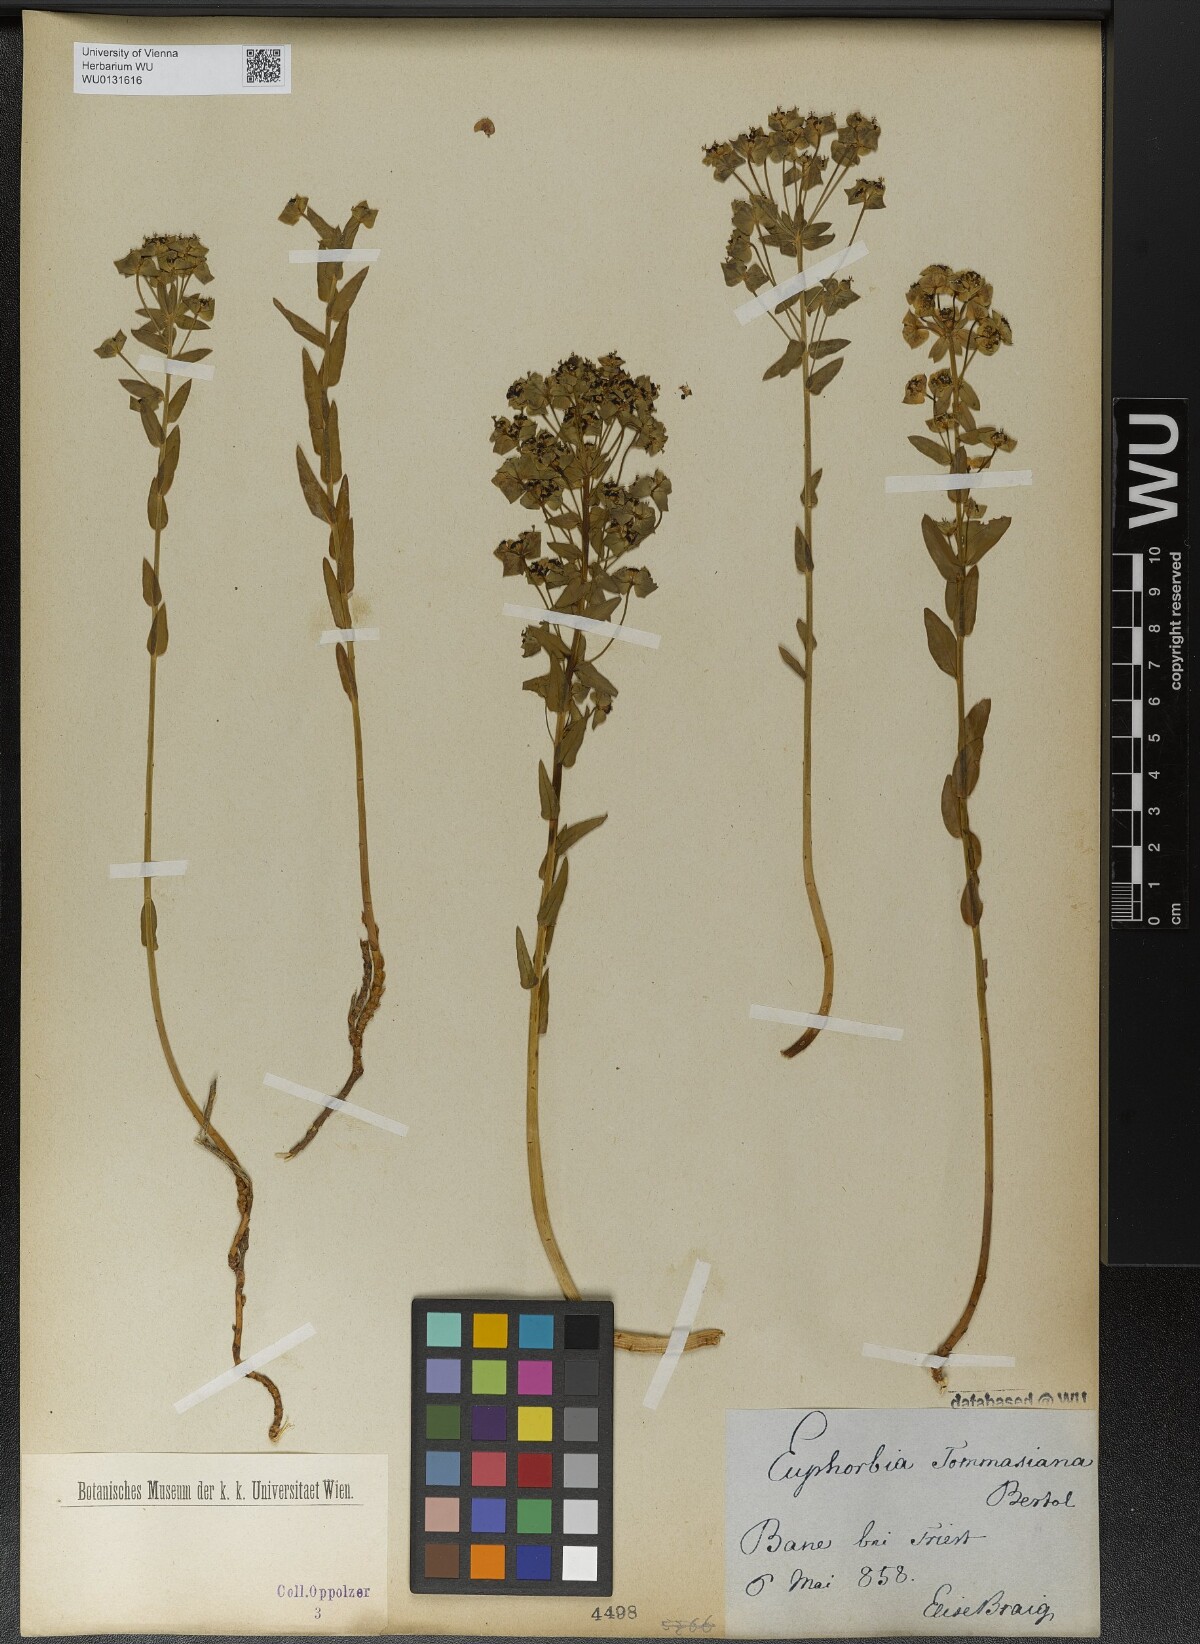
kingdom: Plantae
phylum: Tracheophyta
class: Magnoliopsida
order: Malpighiales
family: Euphorbiaceae
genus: Euphorbia
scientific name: Euphorbia tommasiniana
